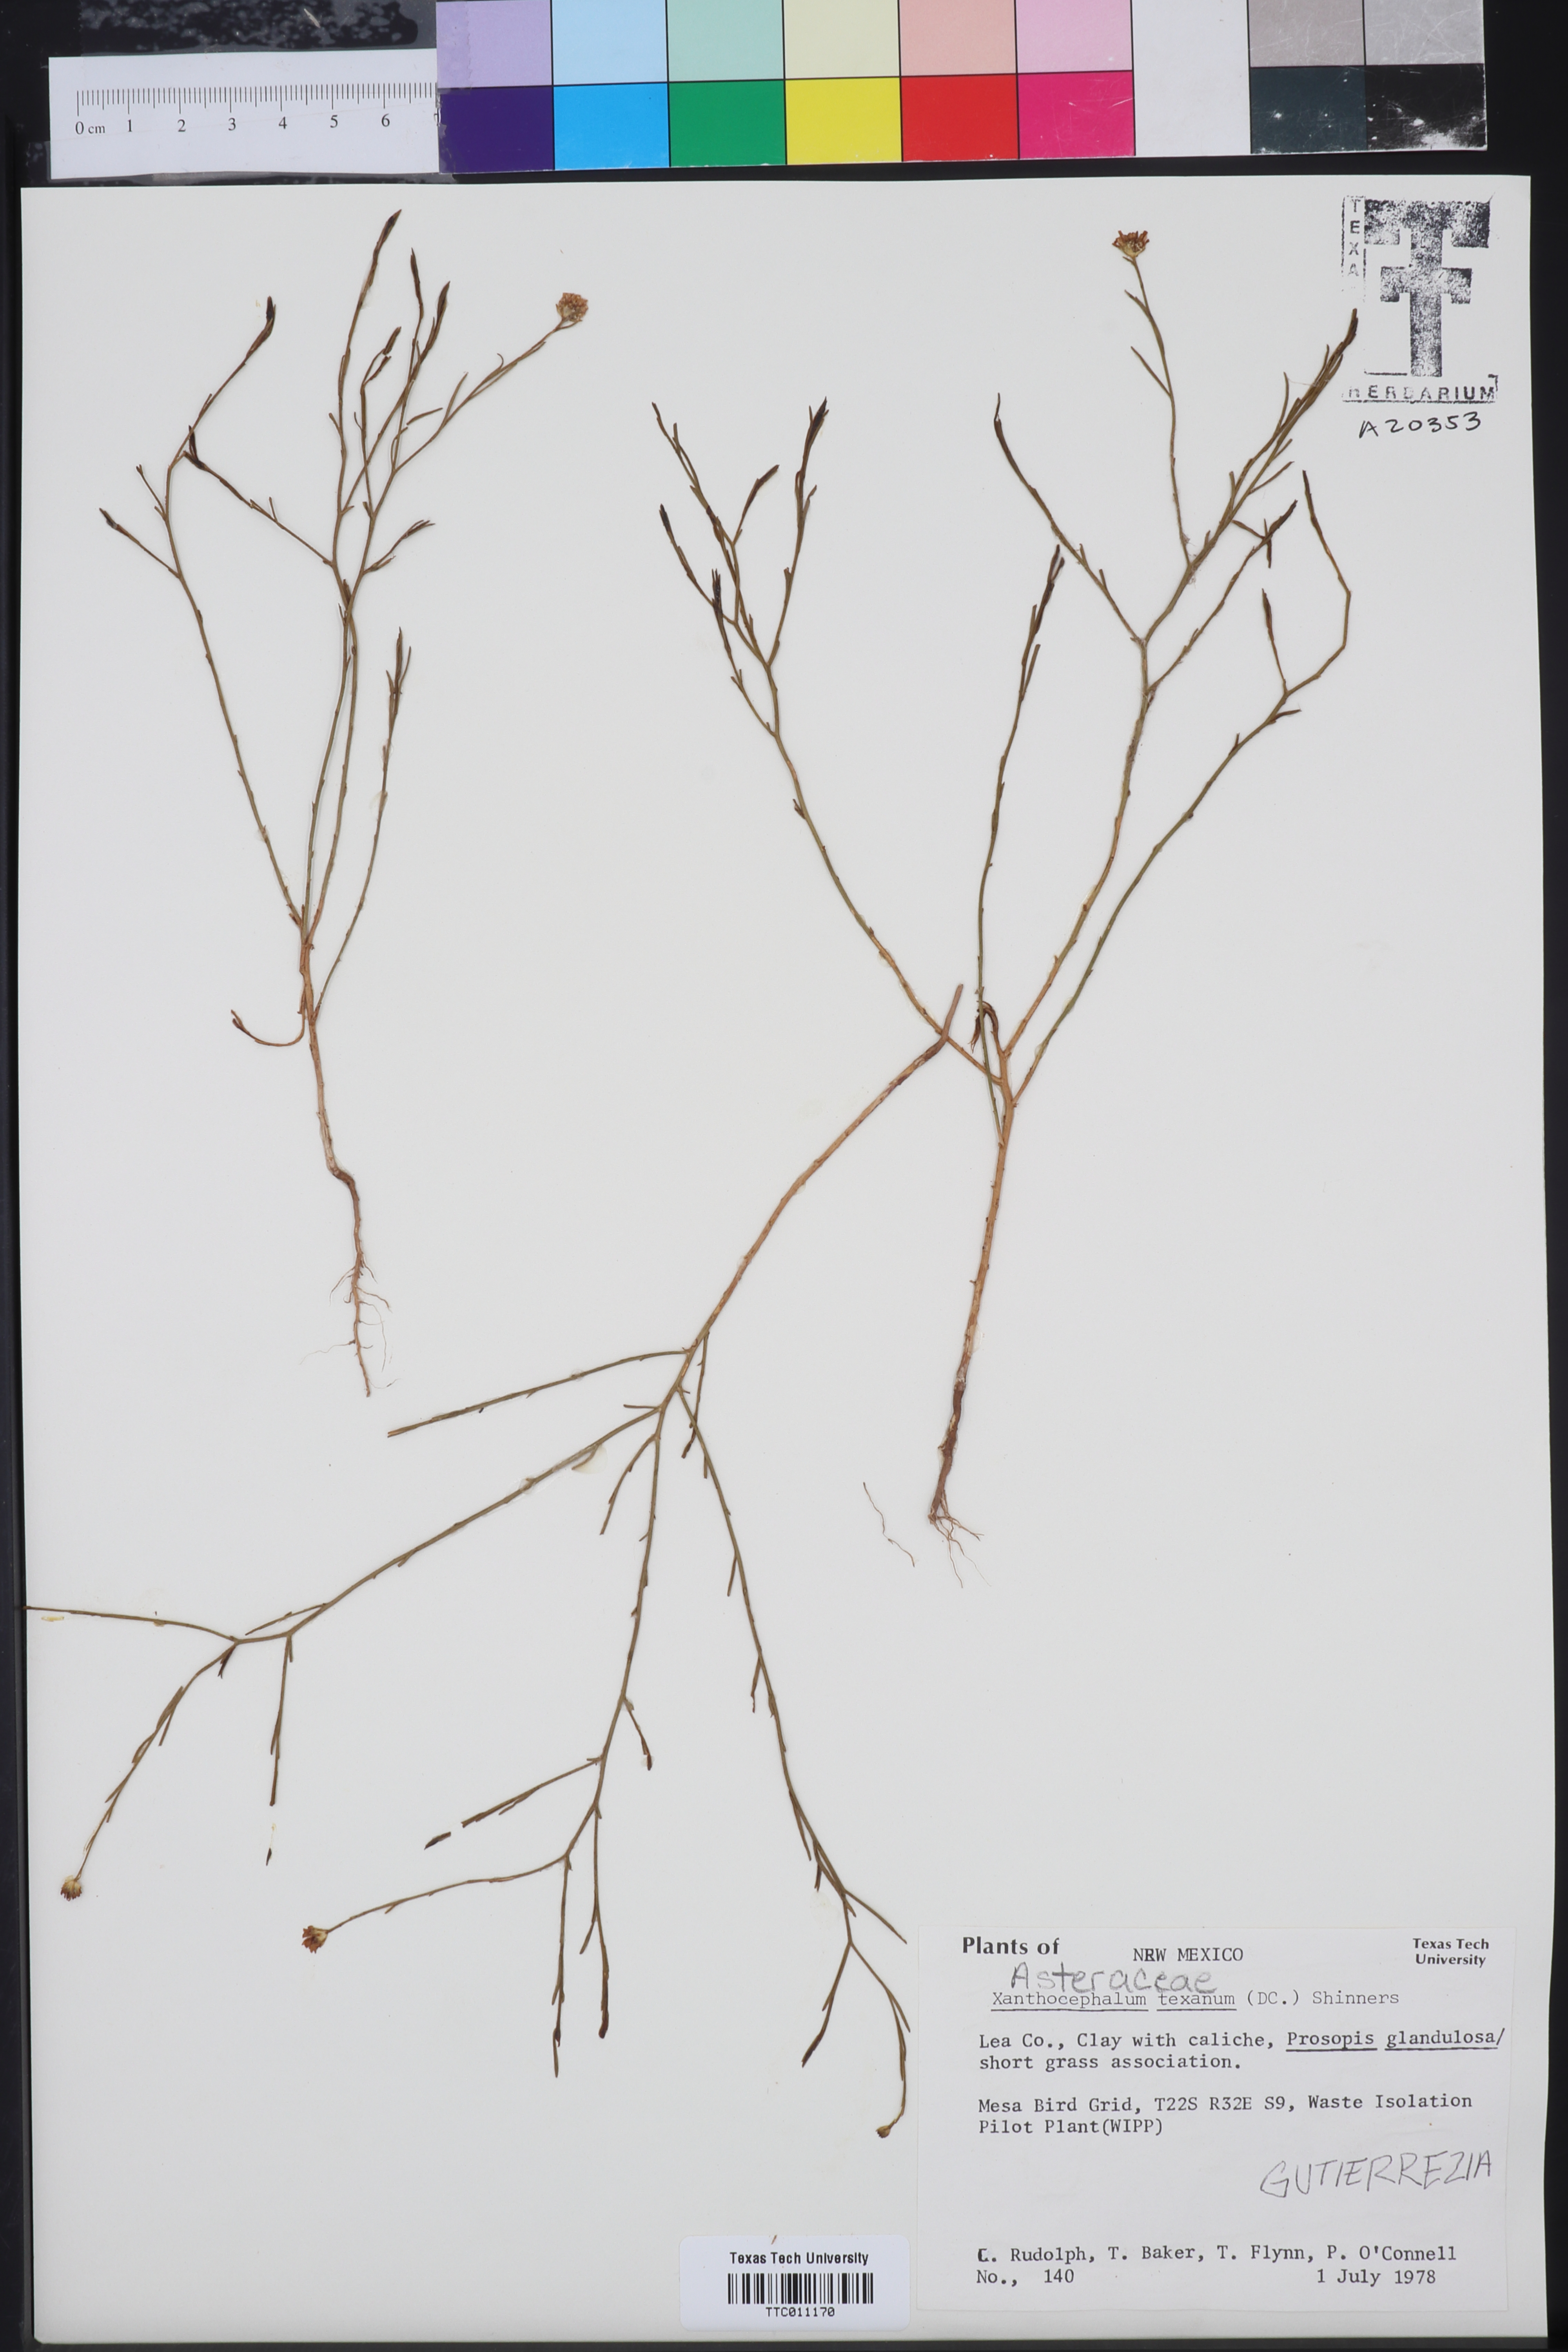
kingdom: Plantae
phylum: Tracheophyta
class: Magnoliopsida
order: Asterales
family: Asteraceae
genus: Gutierrezia
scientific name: Gutierrezia texana
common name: Texas snakeweed
